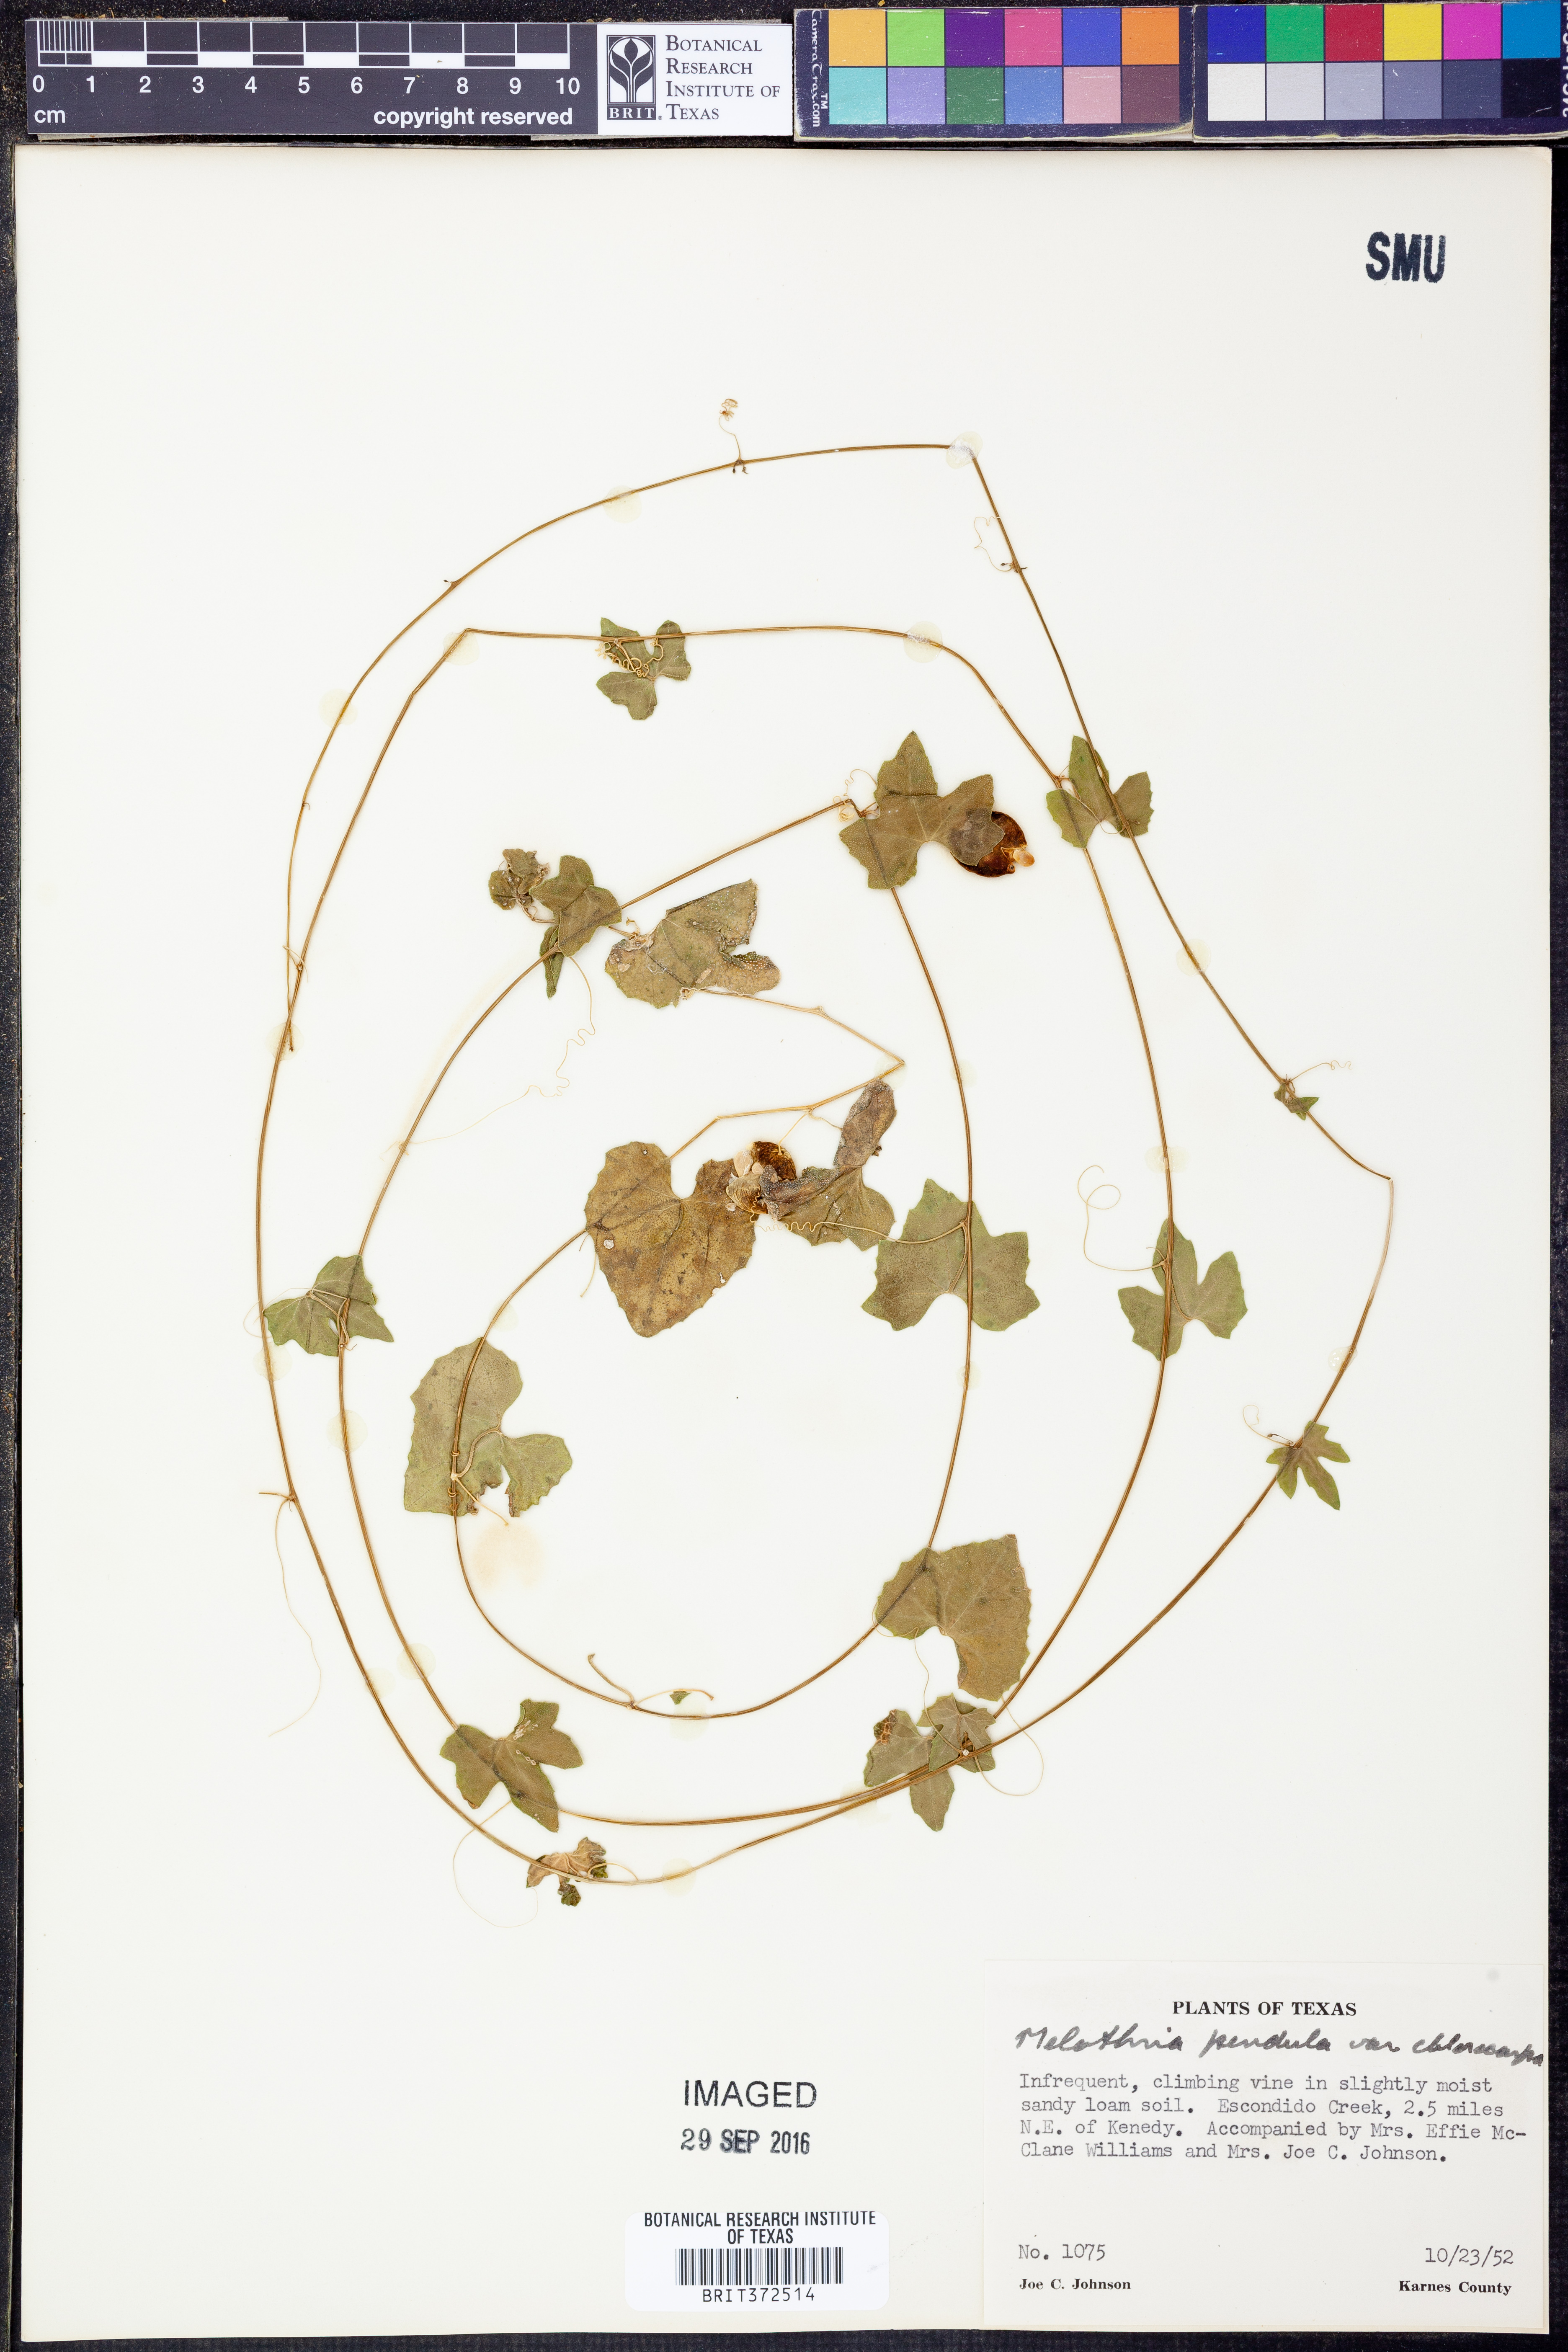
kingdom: Plantae
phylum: Tracheophyta
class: Magnoliopsida
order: Cucurbitales
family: Cucurbitaceae
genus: Melothria
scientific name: Melothria pendula
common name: Creeping-cucumber
